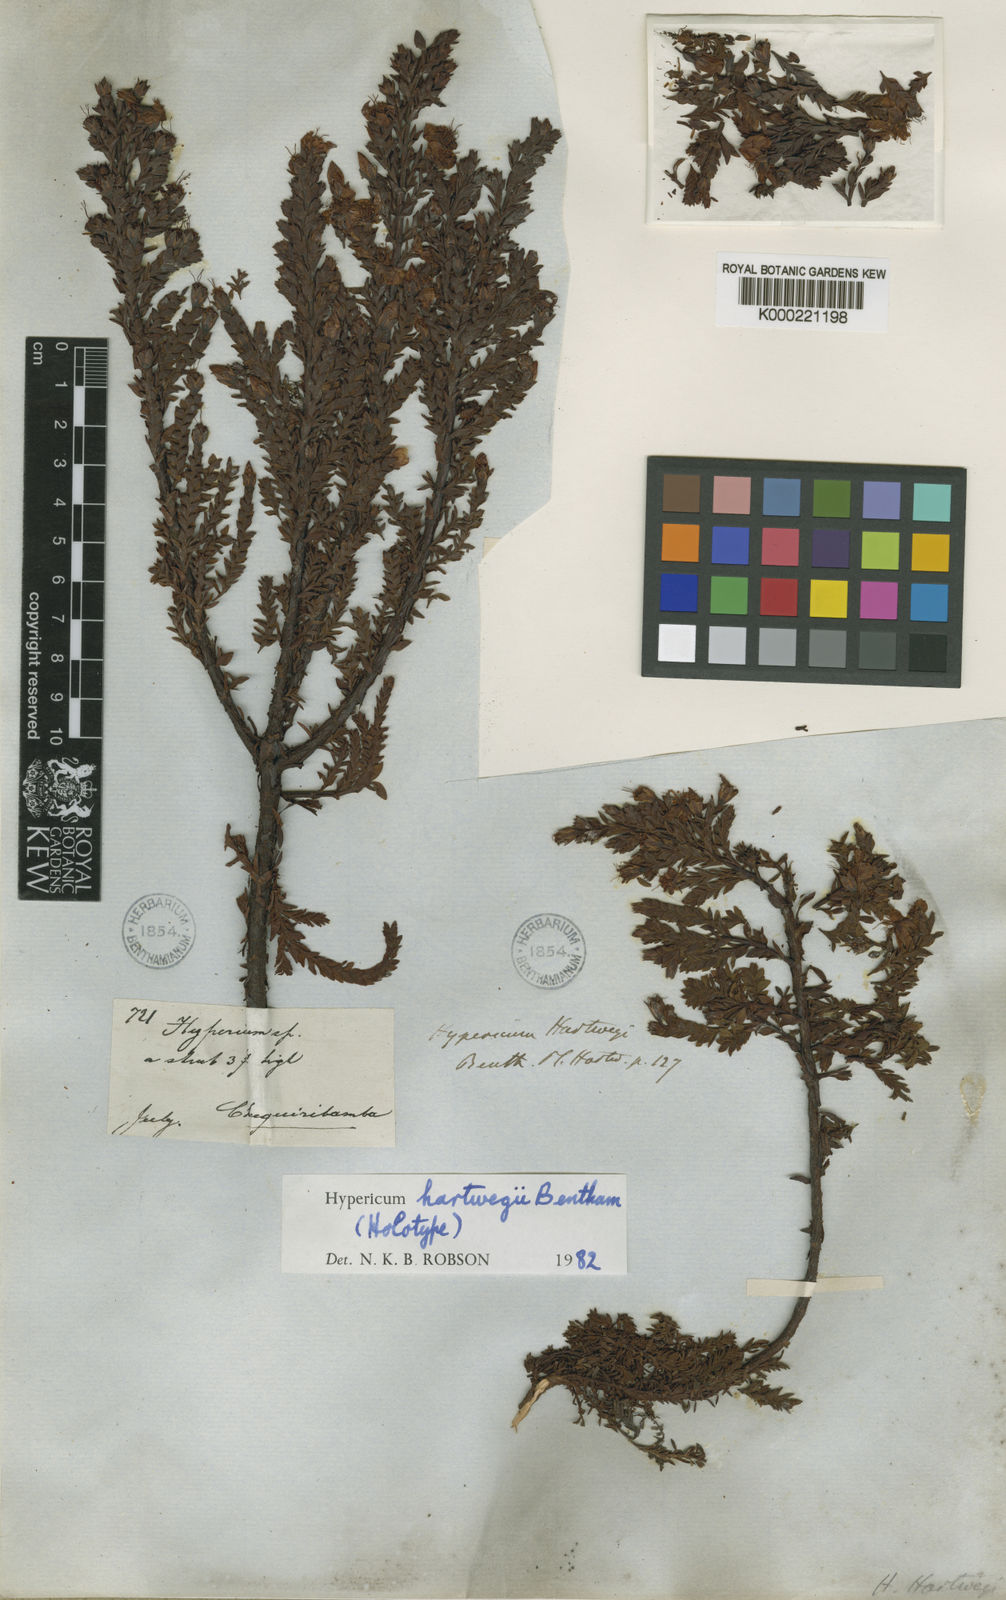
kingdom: Plantae
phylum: Tracheophyta
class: Magnoliopsida
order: Malpighiales
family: Hypericaceae
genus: Hypericum
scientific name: Hypericum hartwegii
